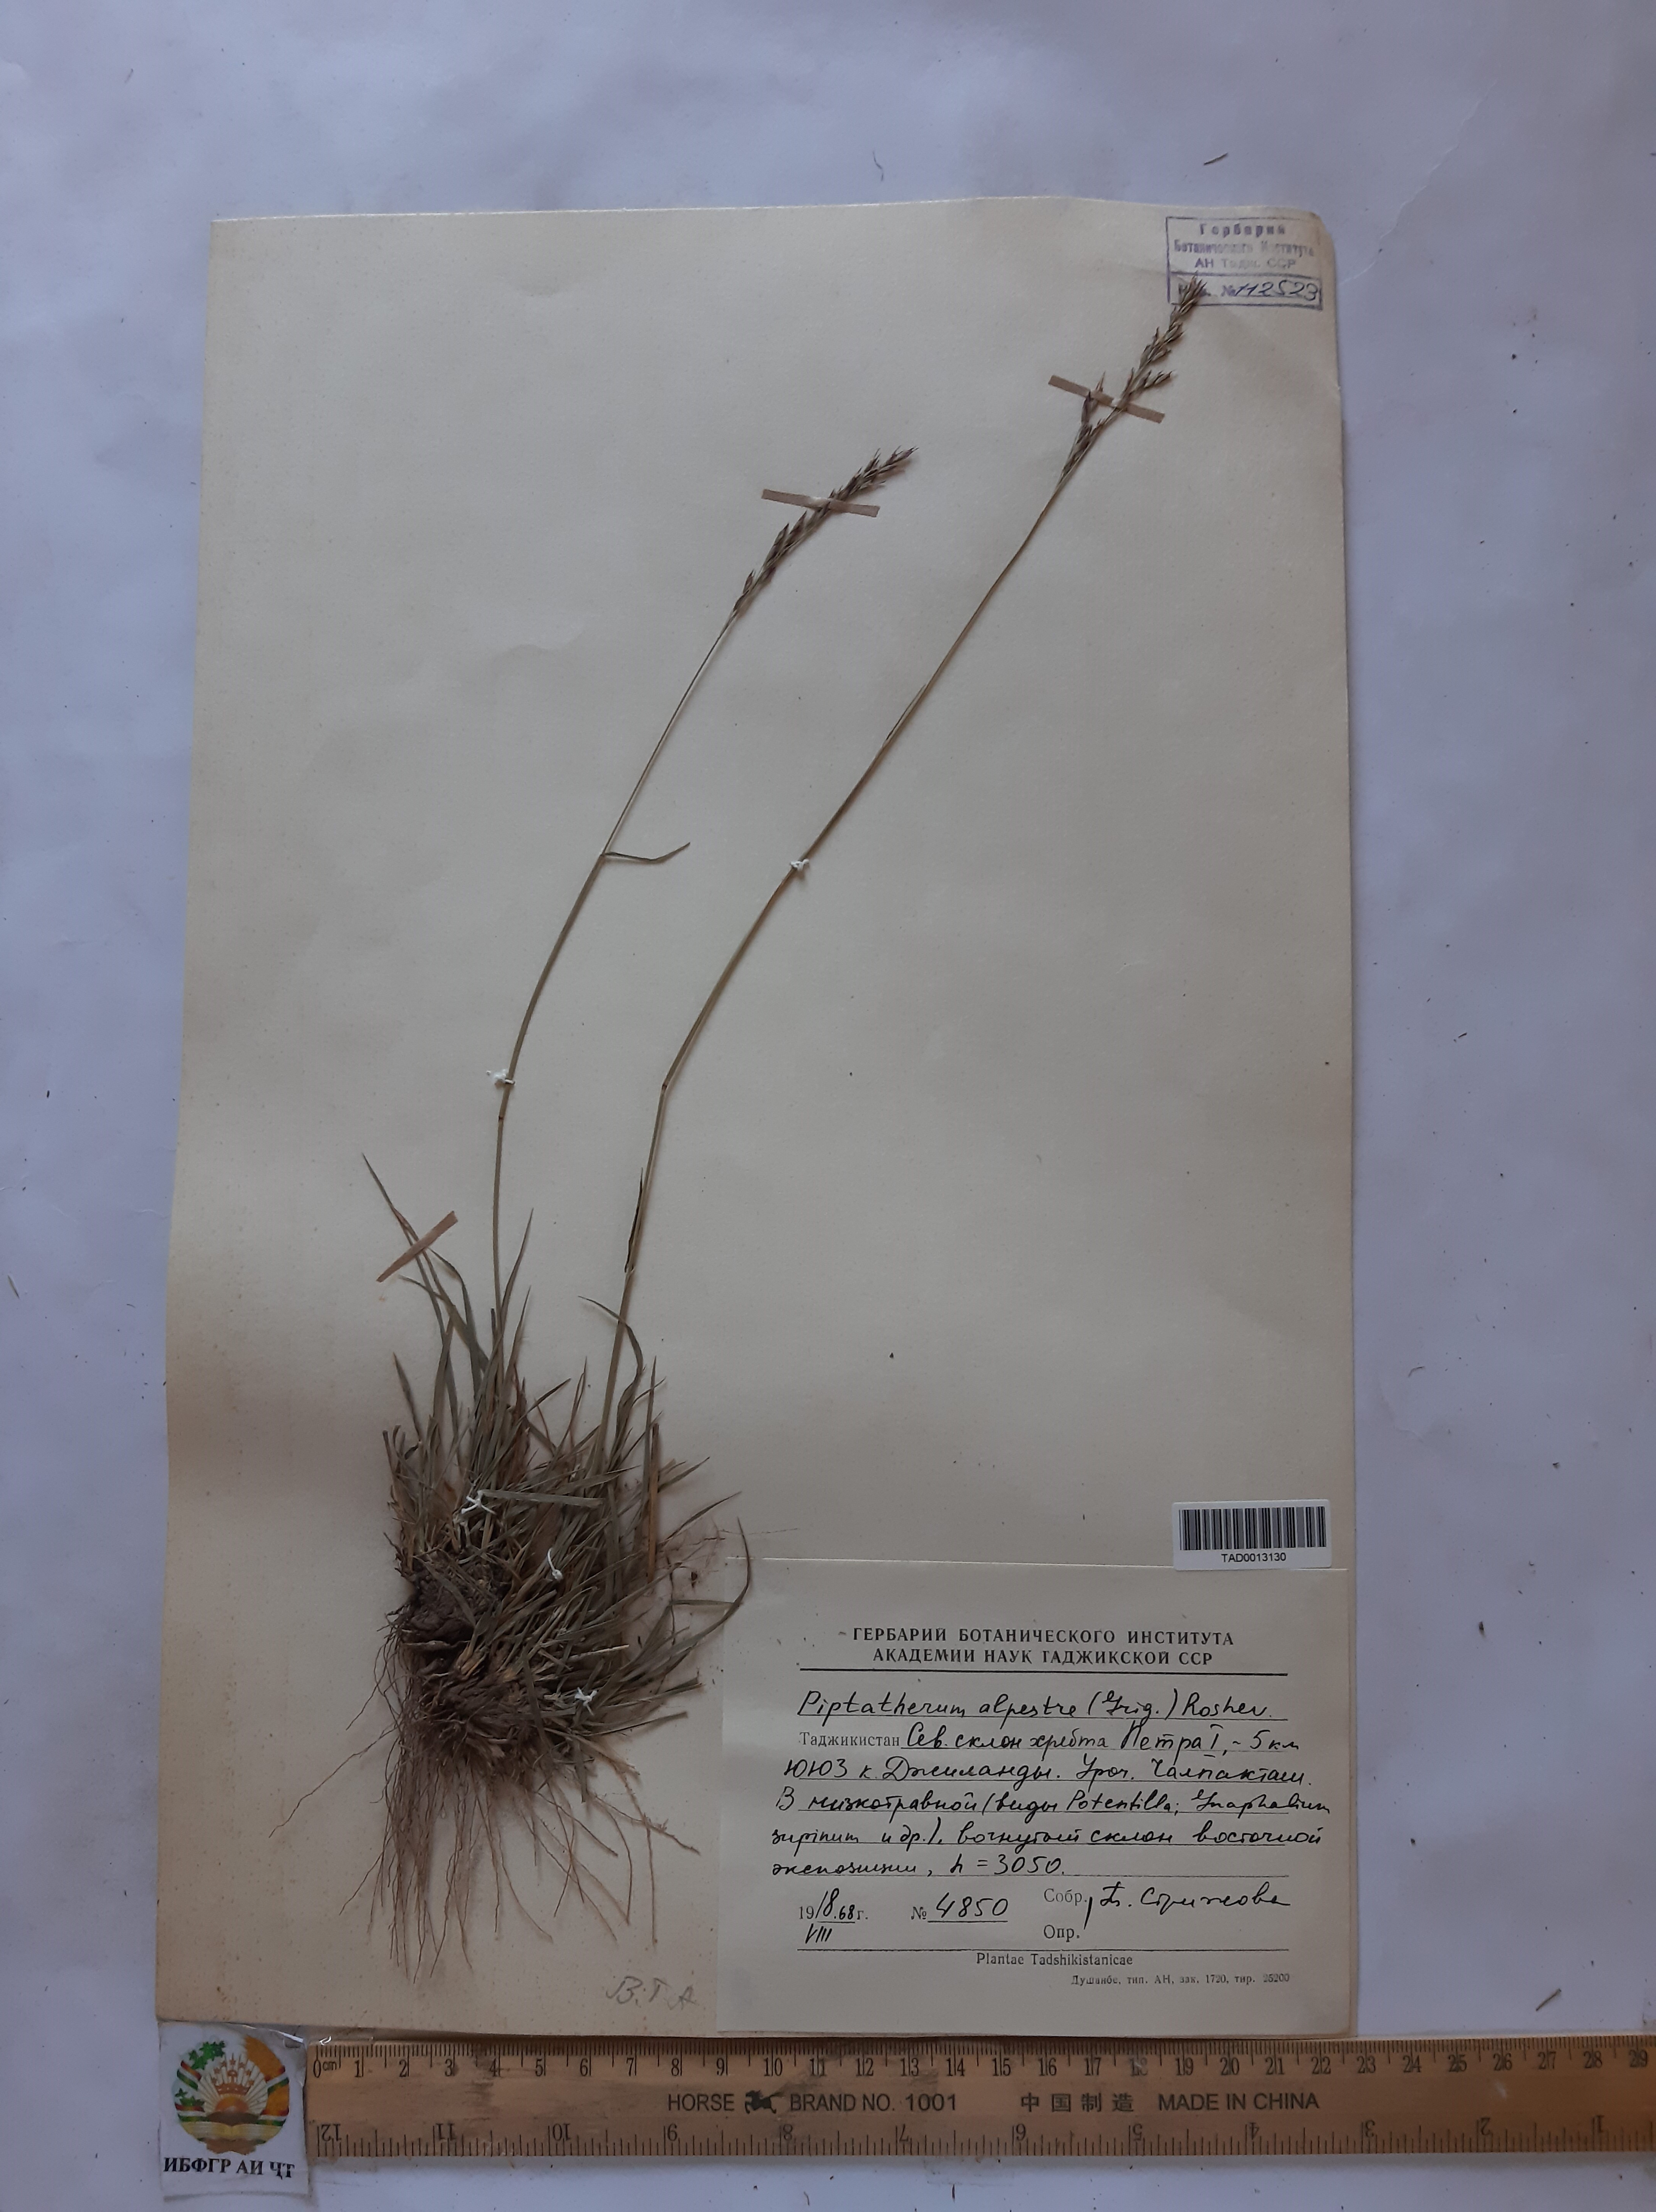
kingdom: Plantae
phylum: Tracheophyta
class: Liliopsida
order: Poales
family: Poaceae
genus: Piptatherum
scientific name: Piptatherum alpestre
